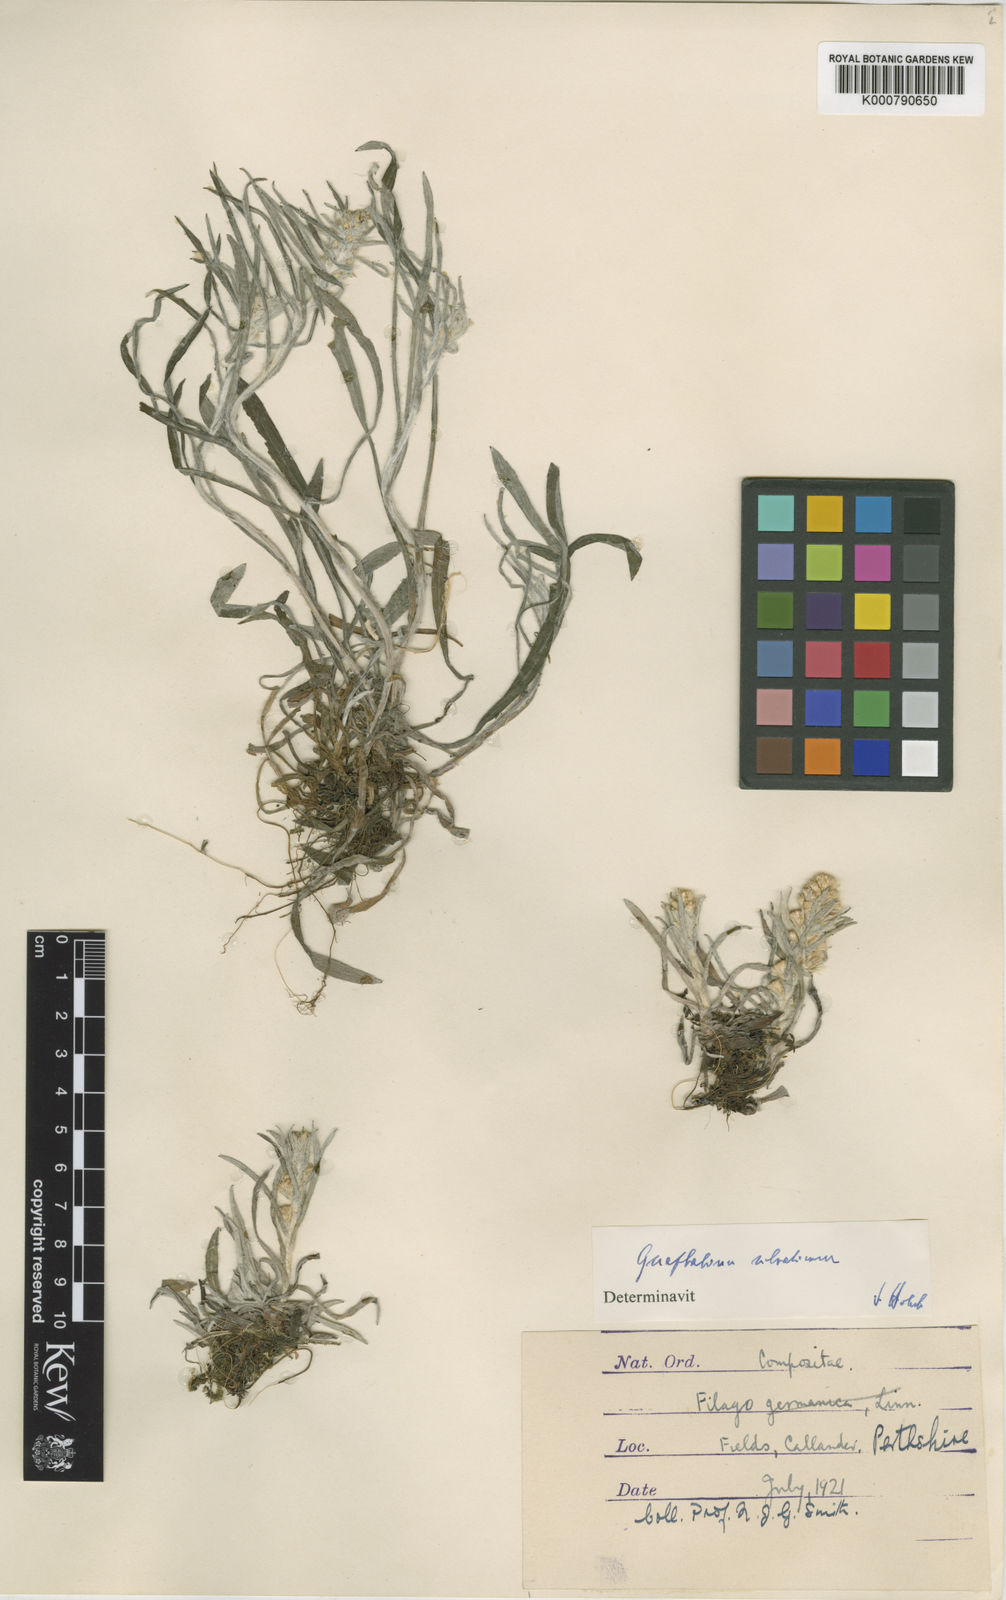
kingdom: Plantae
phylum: Tracheophyta
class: Magnoliopsida
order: Asterales
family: Asteraceae
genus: Omalotheca
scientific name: Omalotheca sylvatica
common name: Heath cudweed
